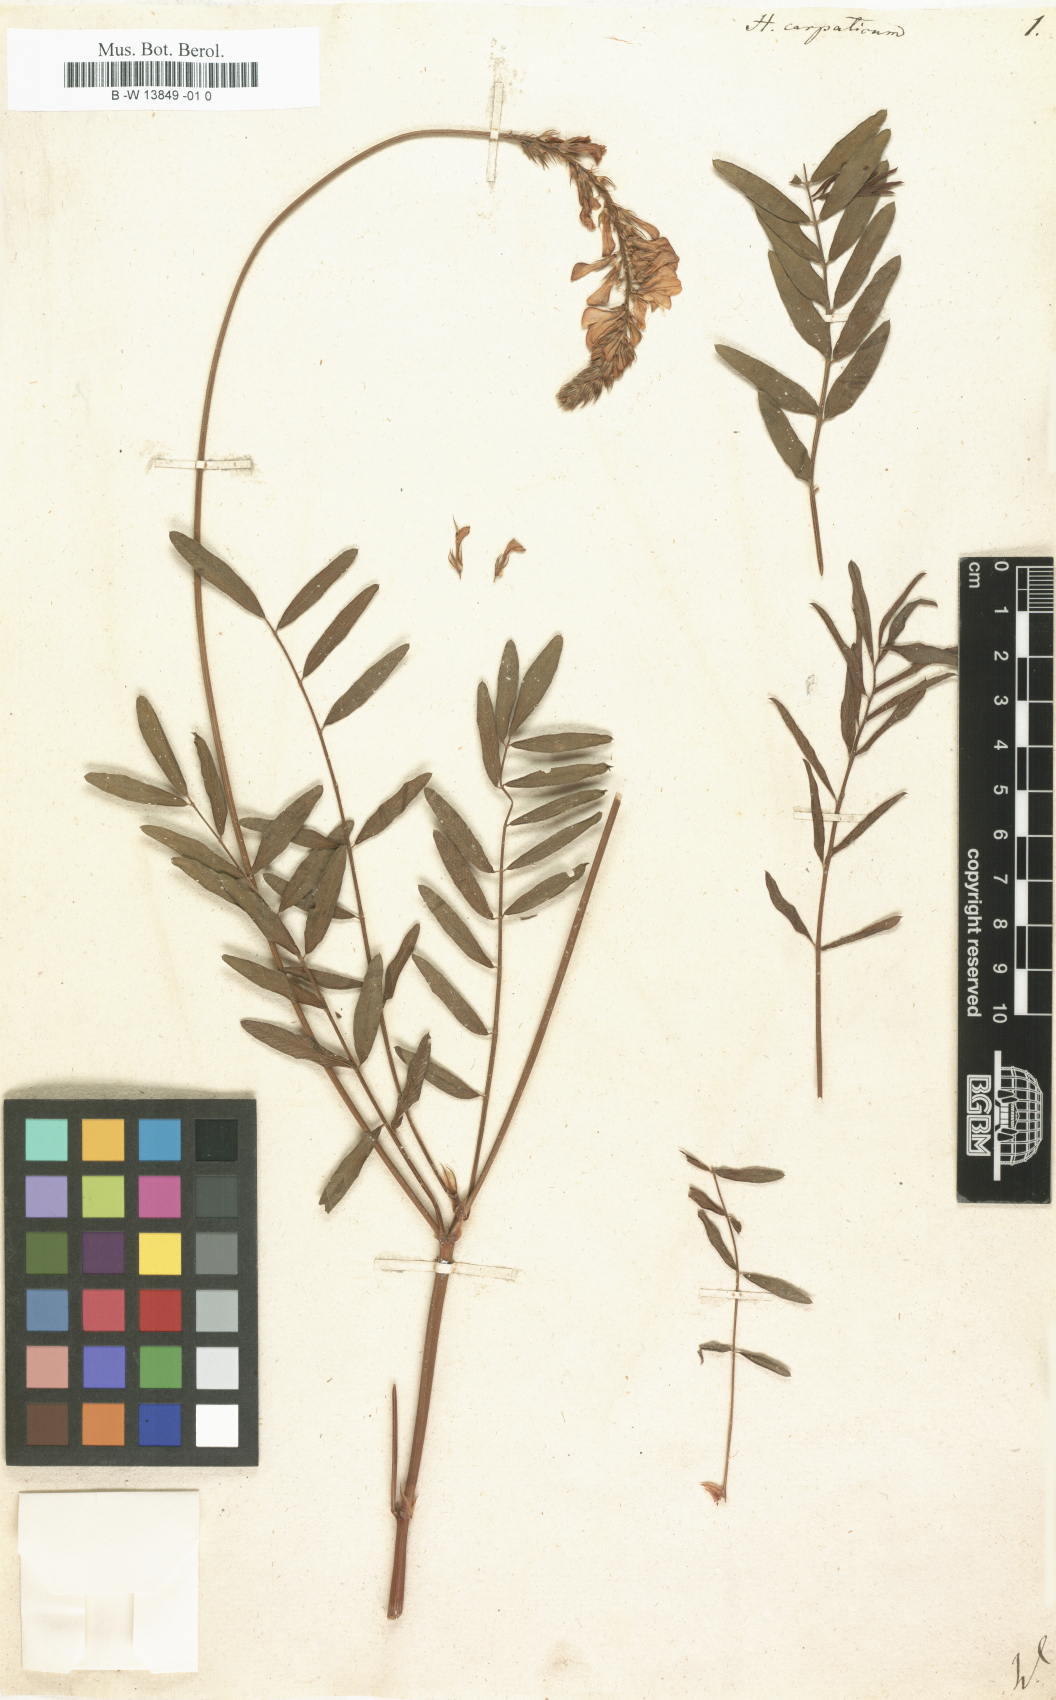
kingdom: Plantae
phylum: Tracheophyta
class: Magnoliopsida
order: Fabales
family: Fabaceae
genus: Hedysarum
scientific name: Hedysarum carpathicum
